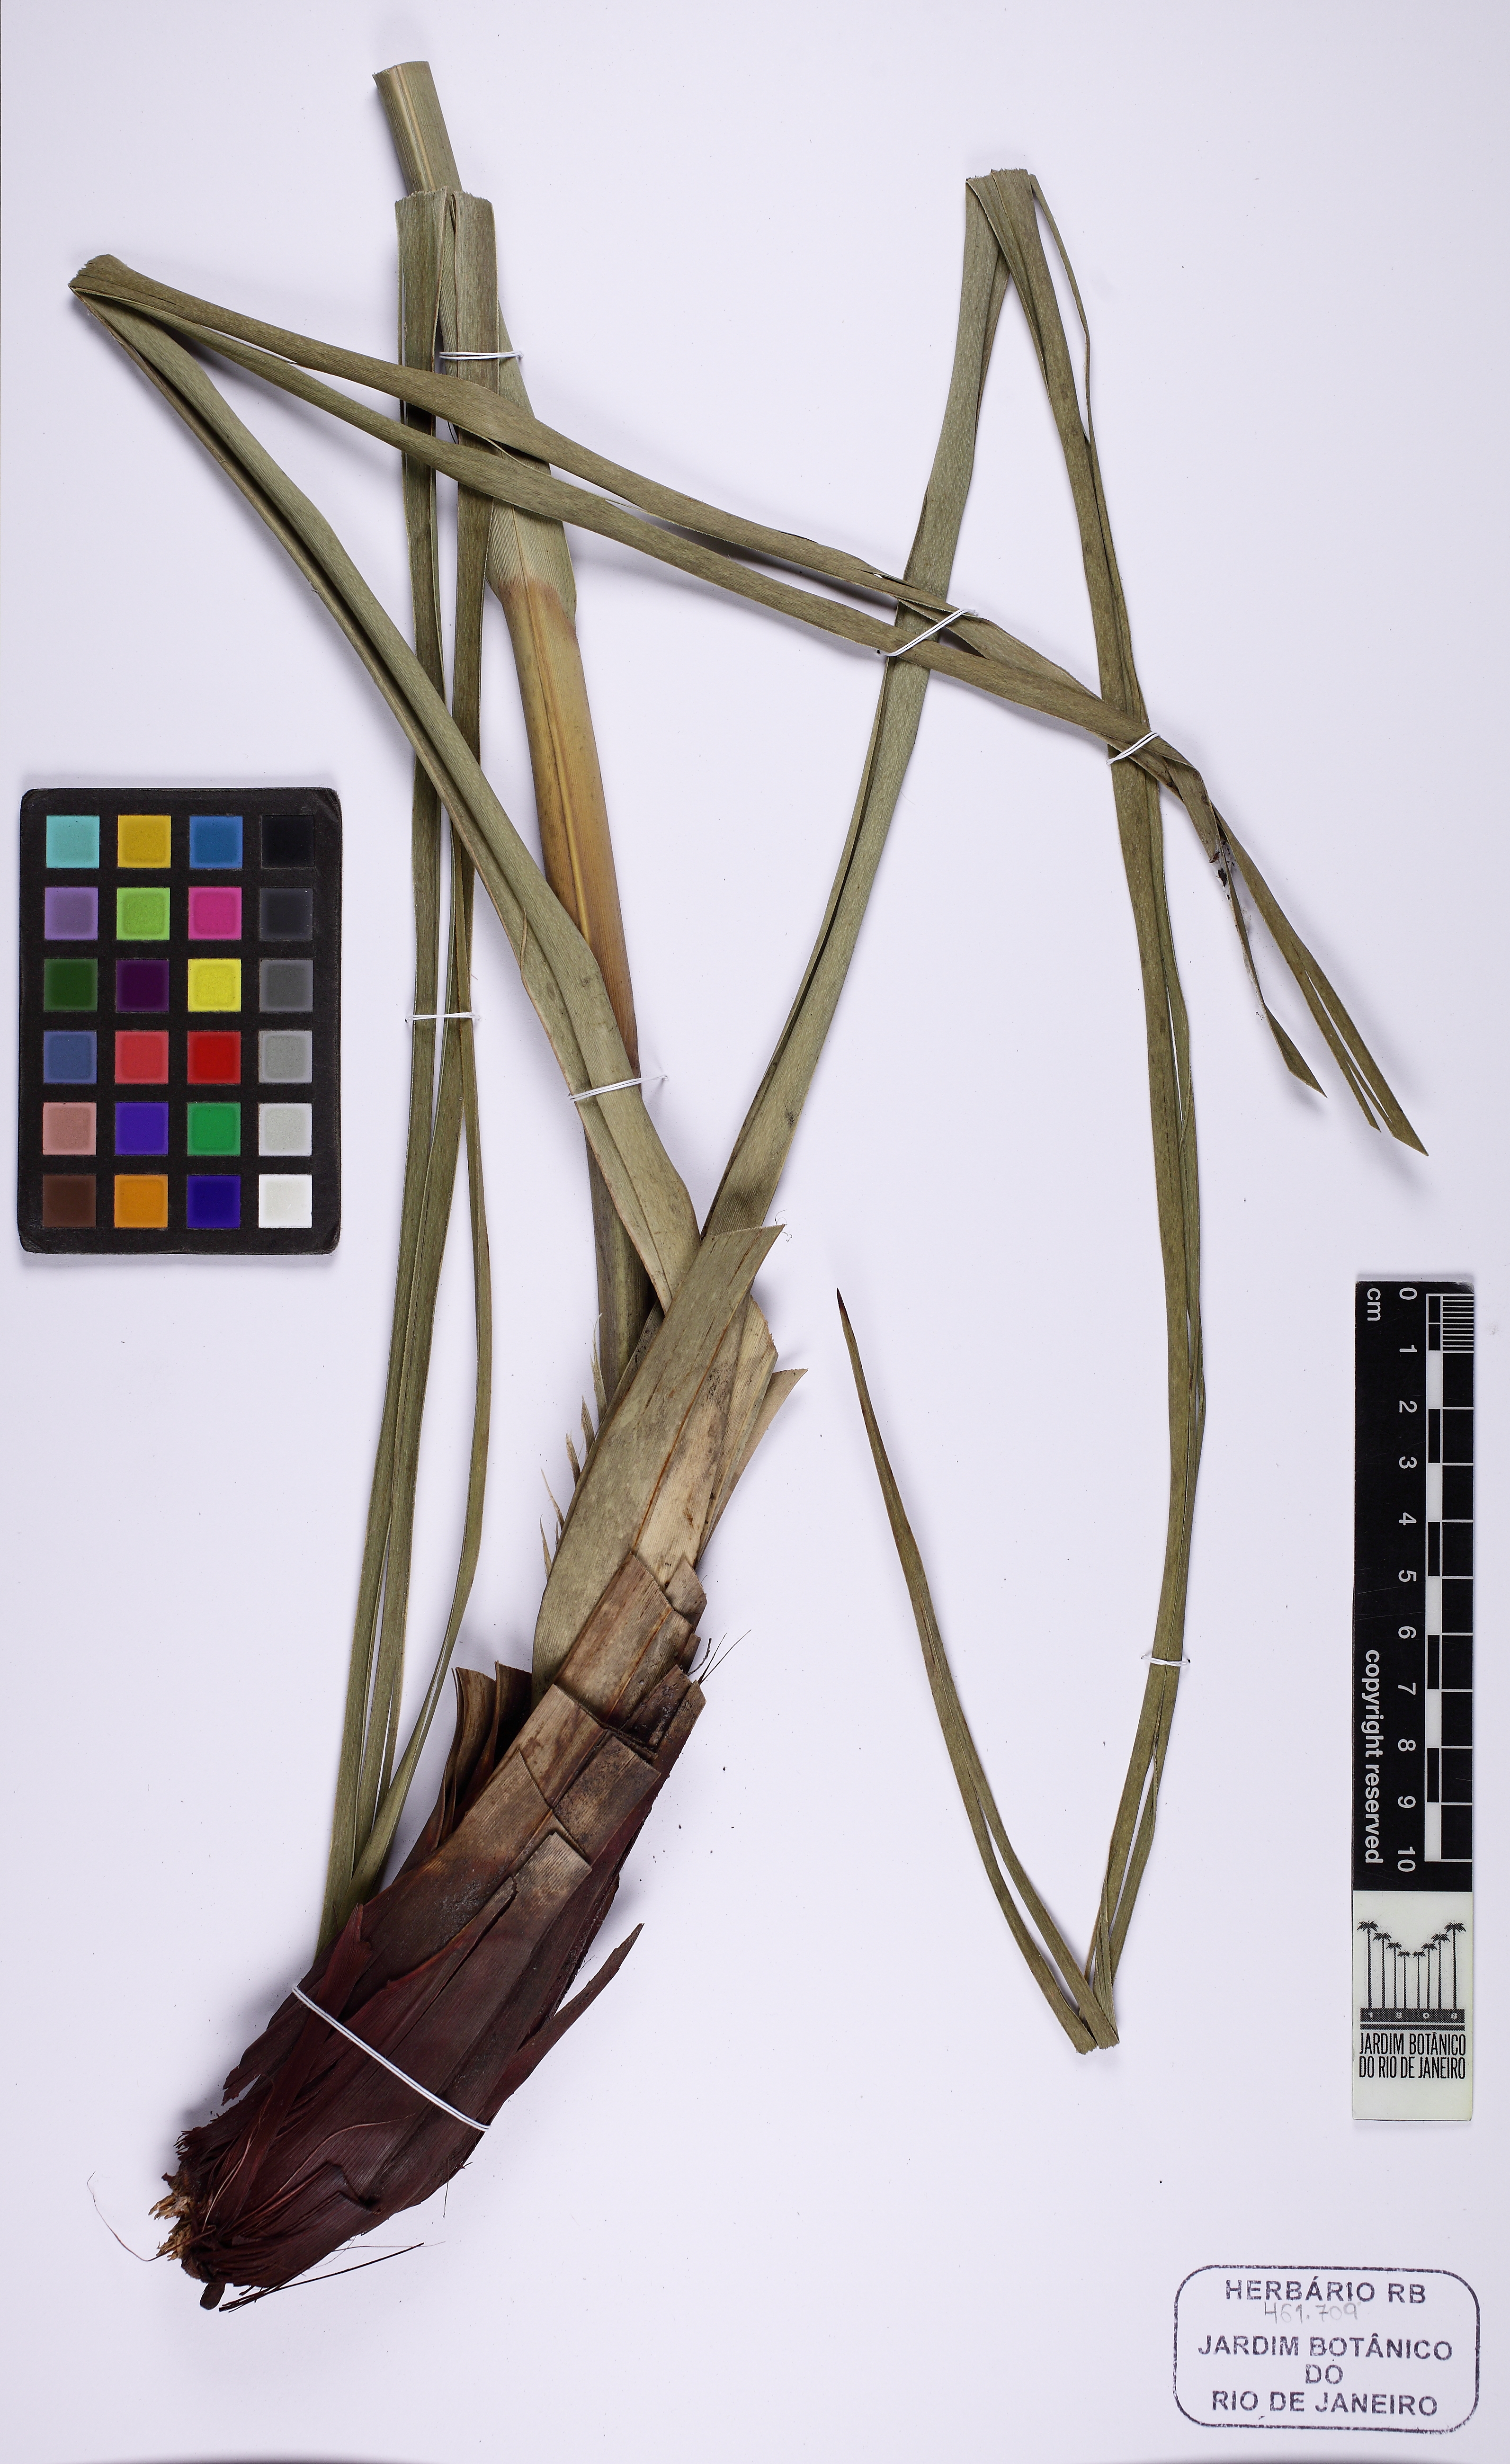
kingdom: Plantae
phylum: Tracheophyta
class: Liliopsida
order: Poales
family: Cyperaceae
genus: Lagenocarpus
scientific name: Lagenocarpus guianensis
